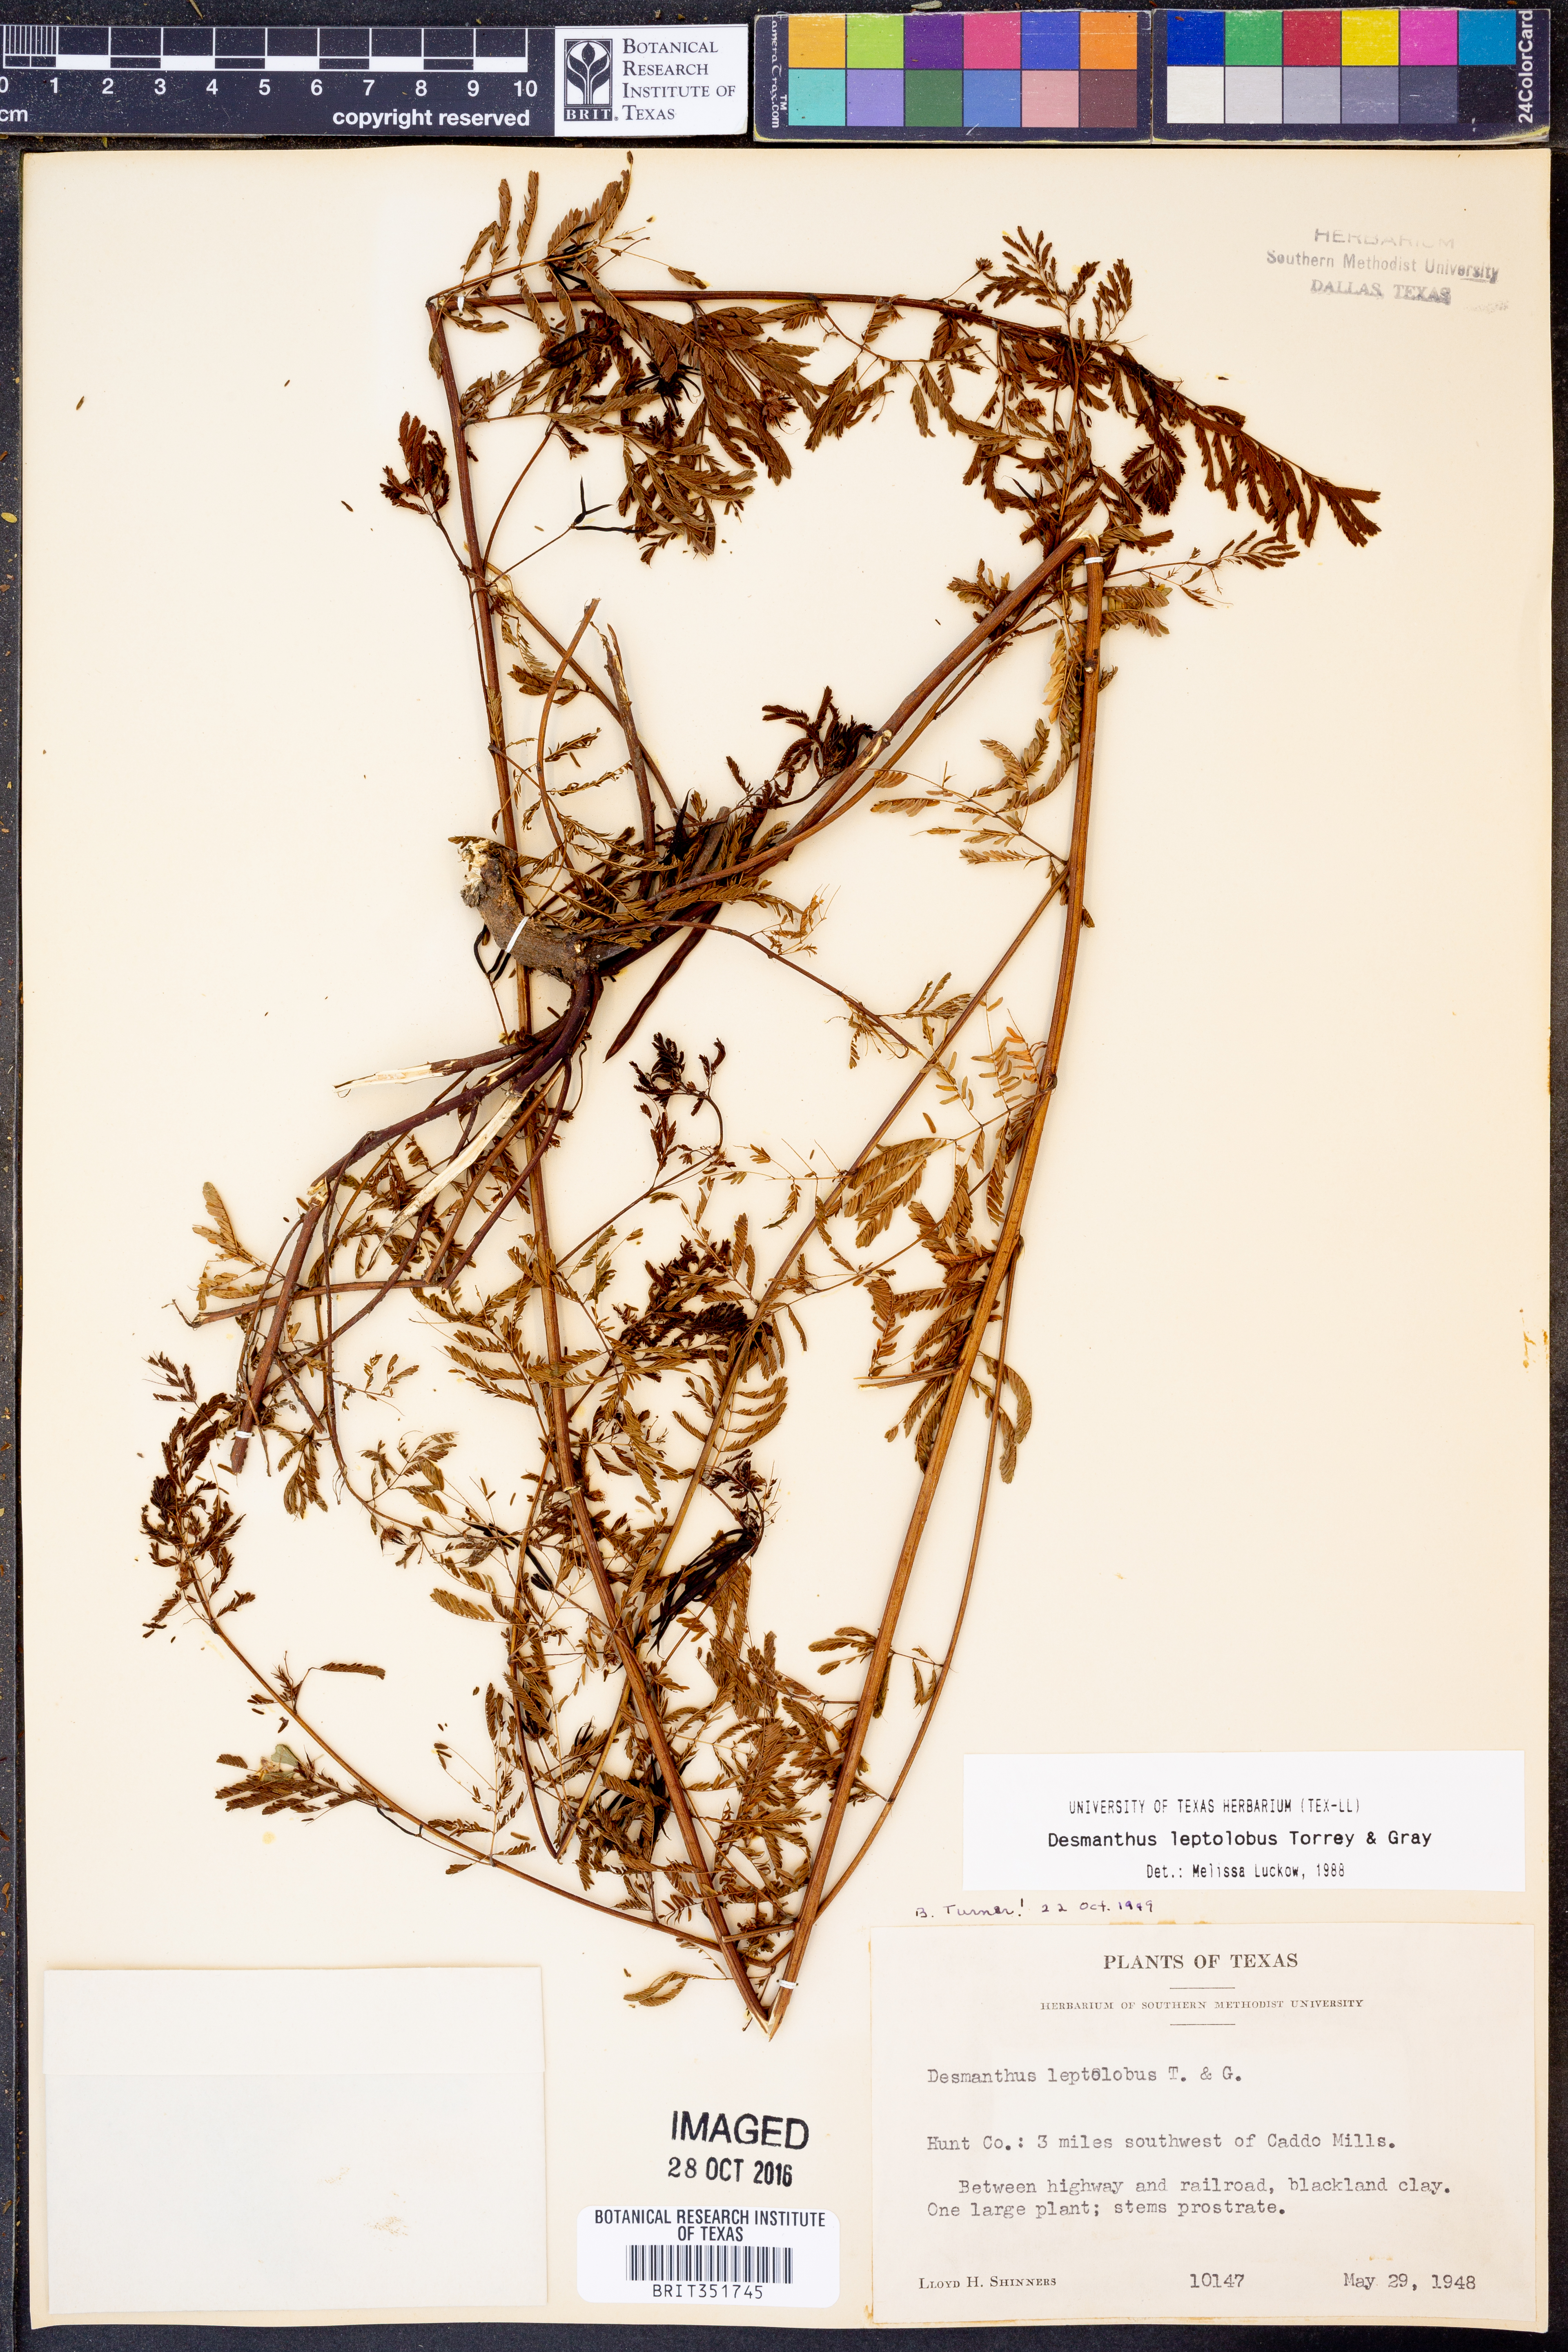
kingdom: Plantae
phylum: Tracheophyta
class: Magnoliopsida
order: Fabales
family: Fabaceae
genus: Desmanthus
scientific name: Desmanthus leptolobus
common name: Prairie-mimosa
